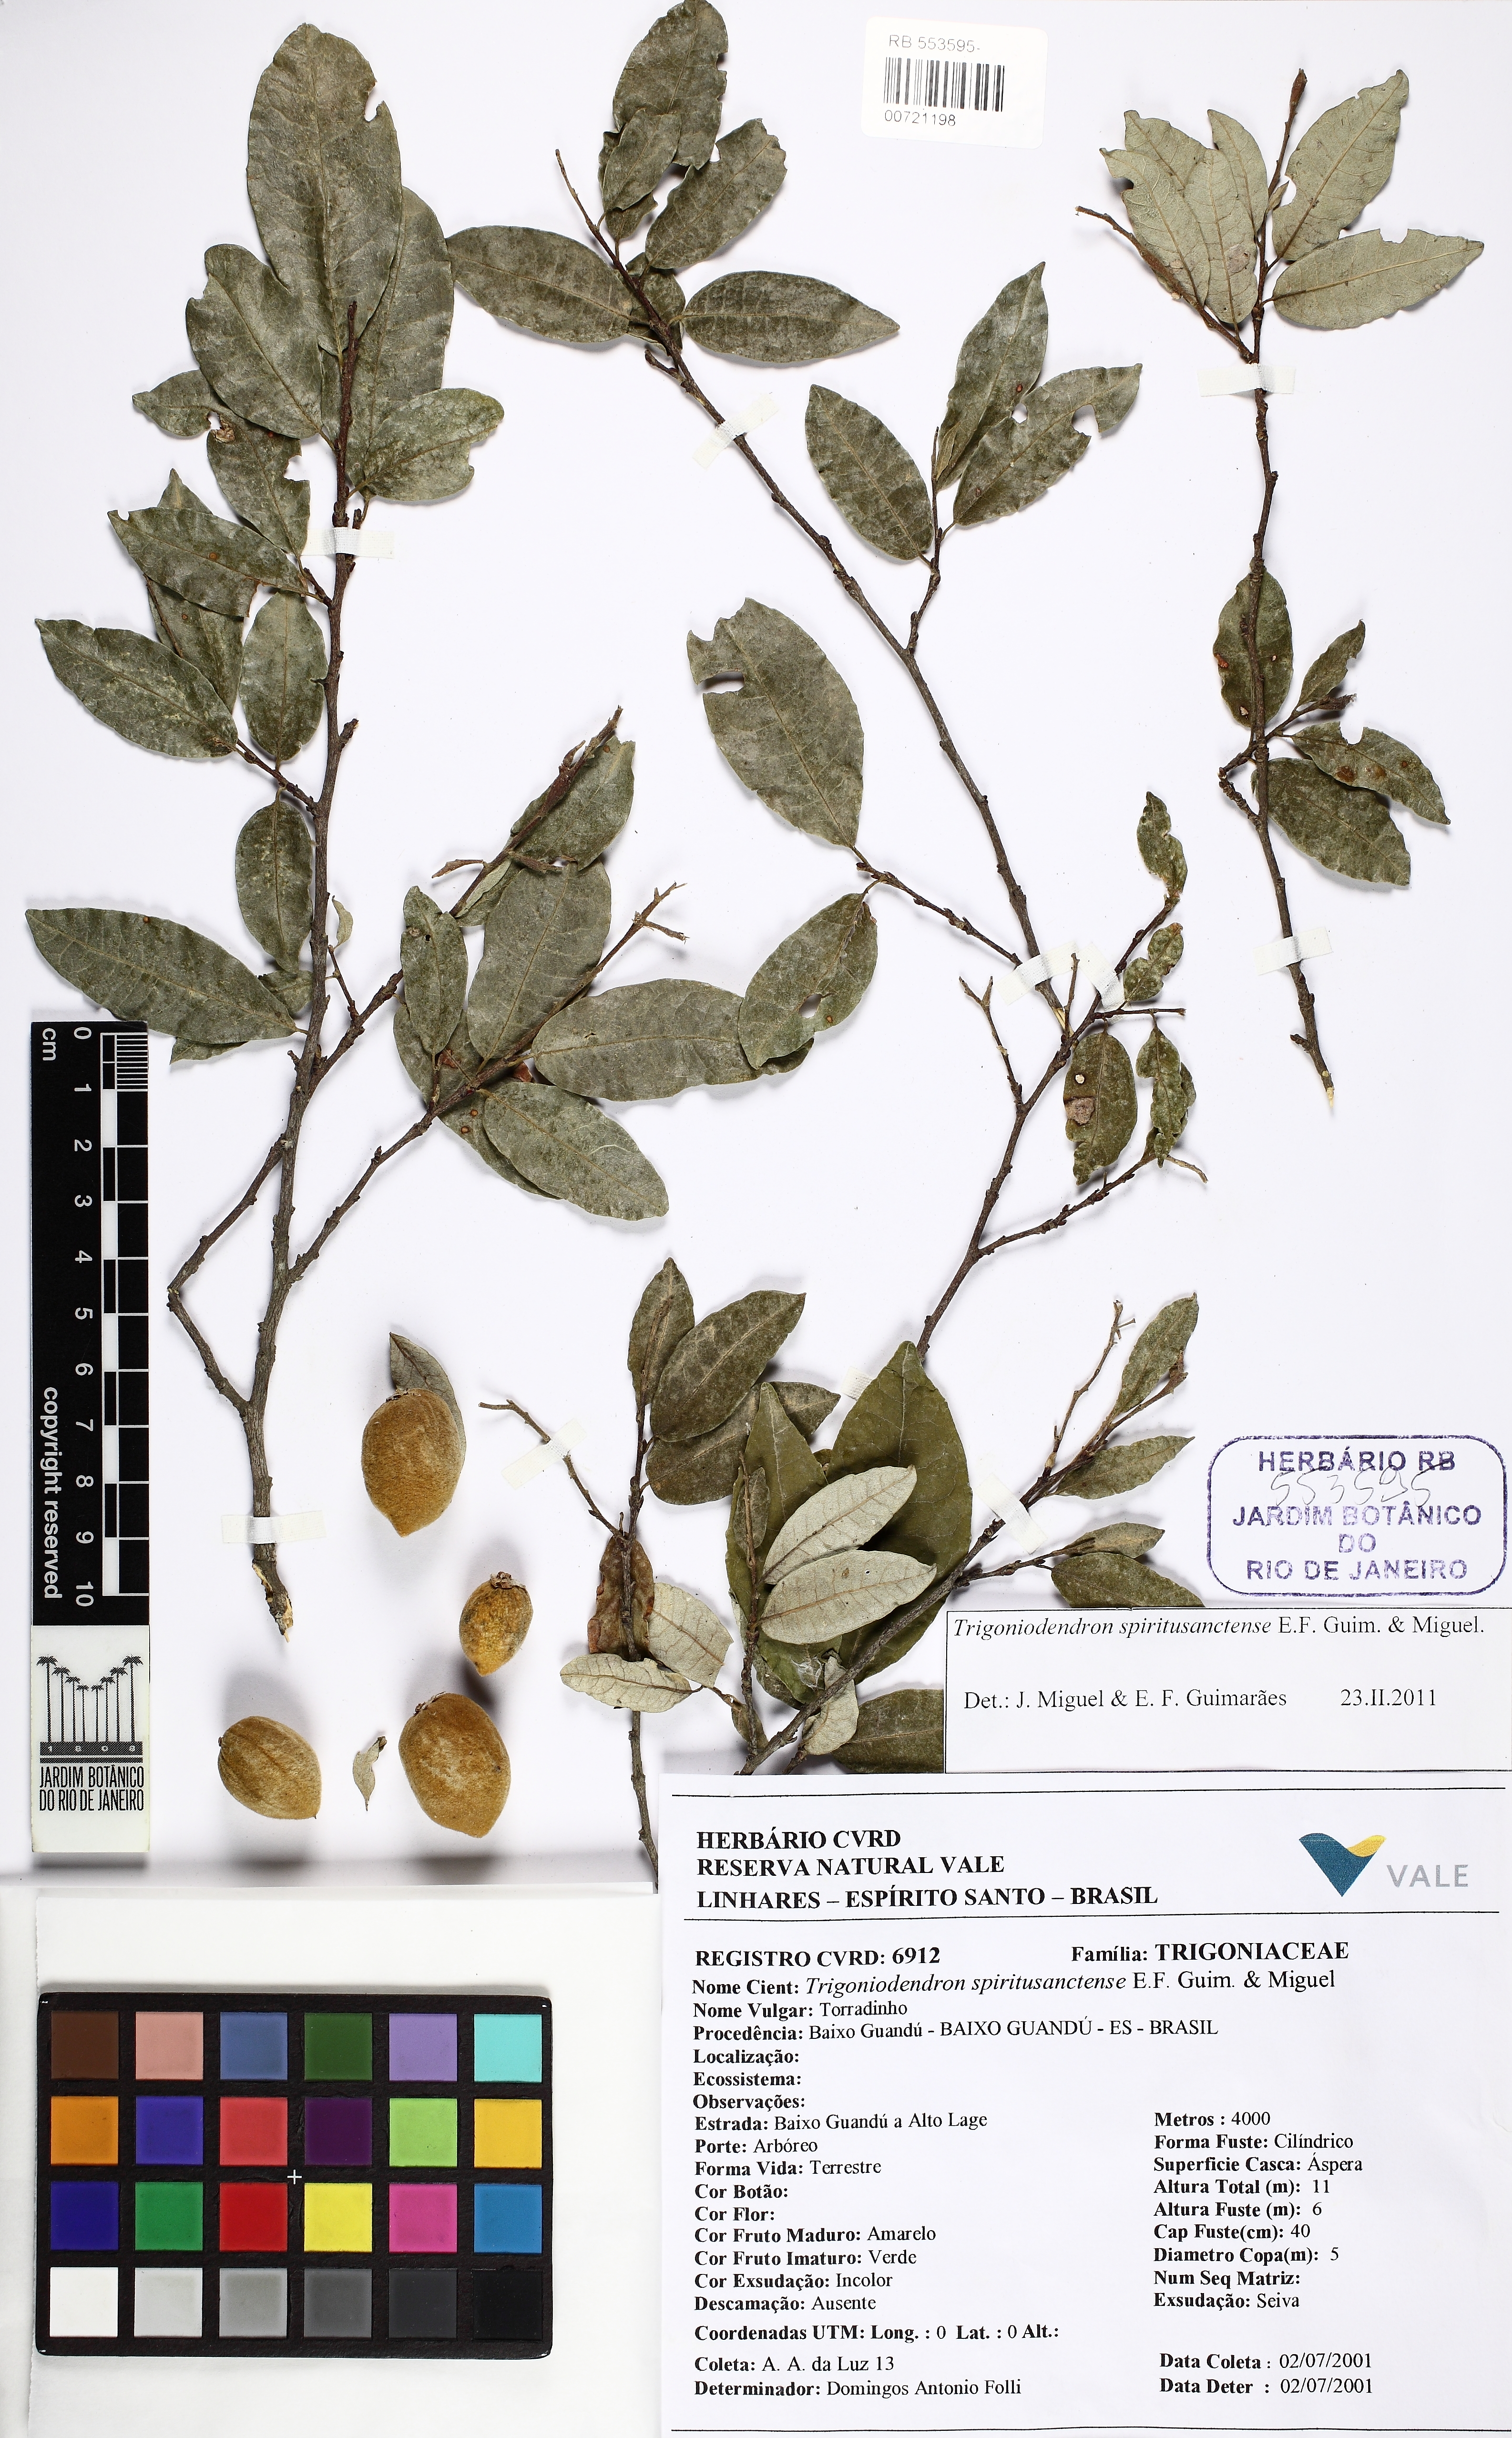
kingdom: Plantae
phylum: Tracheophyta
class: Magnoliopsida
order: Malpighiales
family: Trigoniaceae
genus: Trigoniodendron
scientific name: Trigoniodendron spiritusanctense
